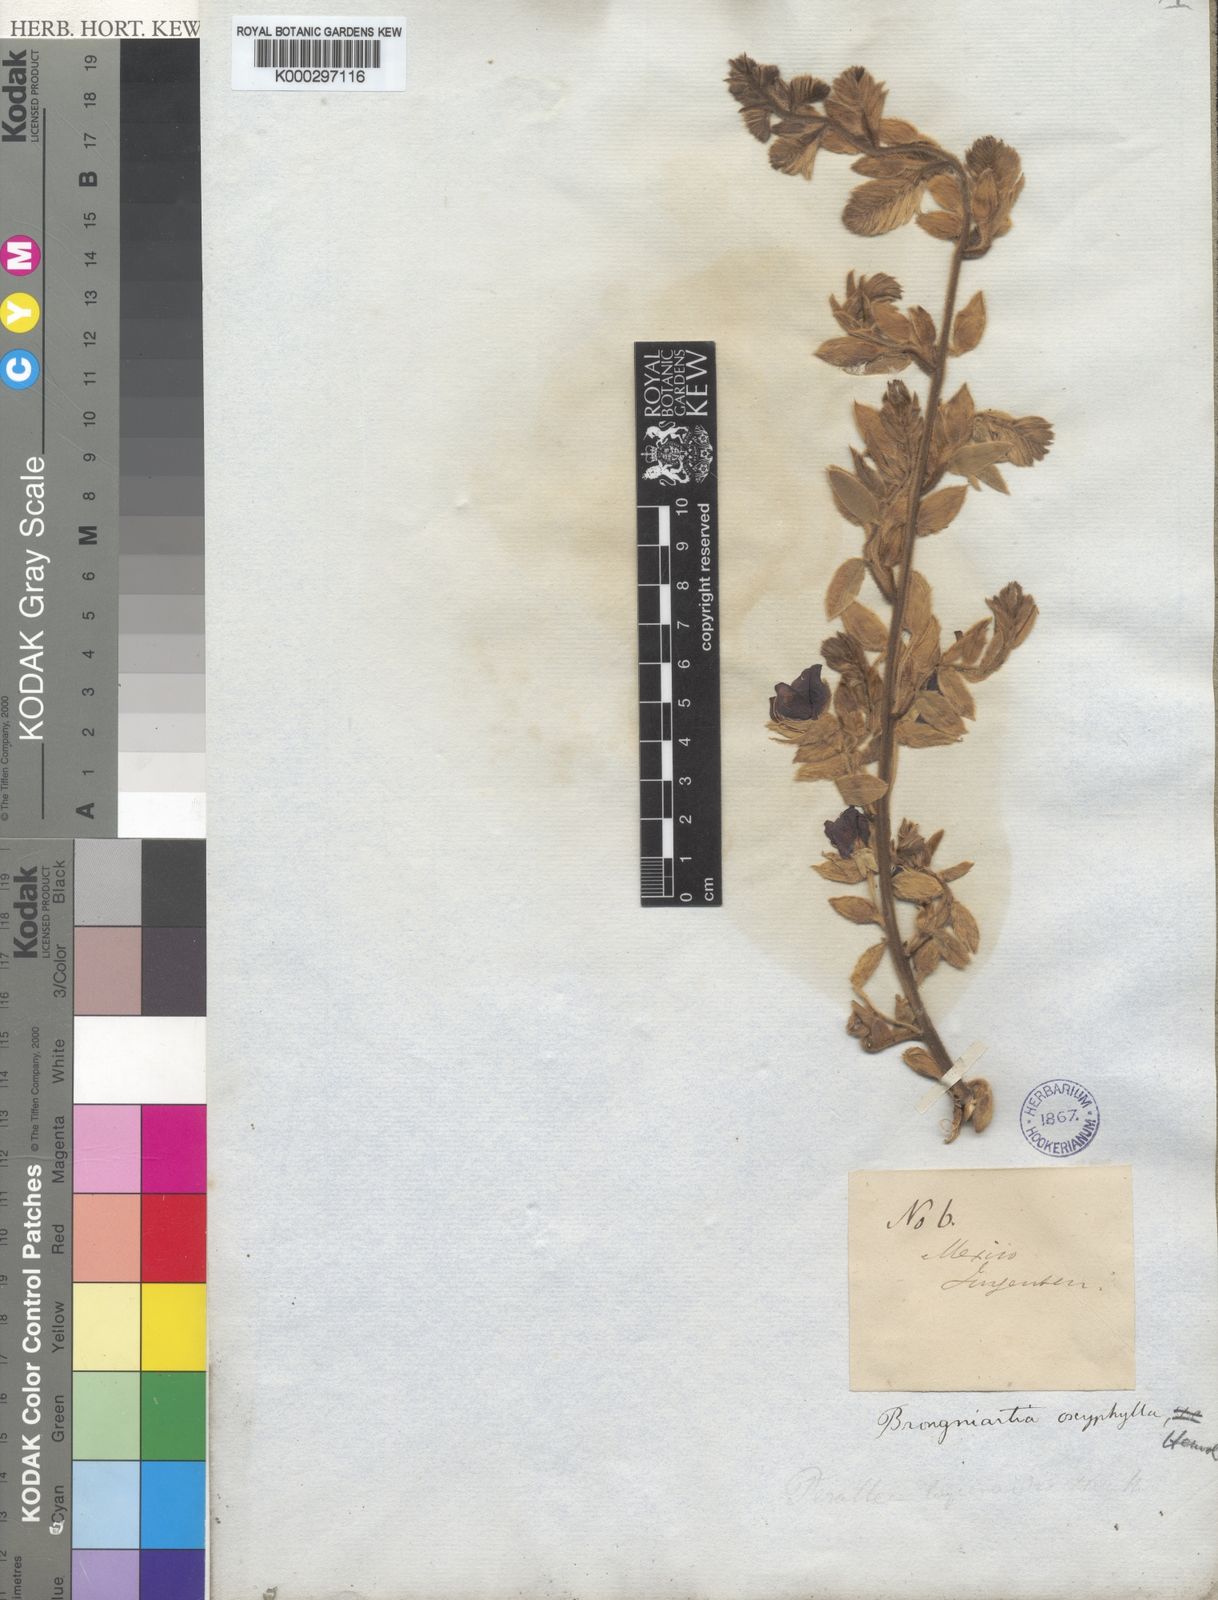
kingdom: Plantae
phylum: Tracheophyta
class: Magnoliopsida
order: Fabales
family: Fabaceae
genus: Brongniartia
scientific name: Brongniartia lupinoides
